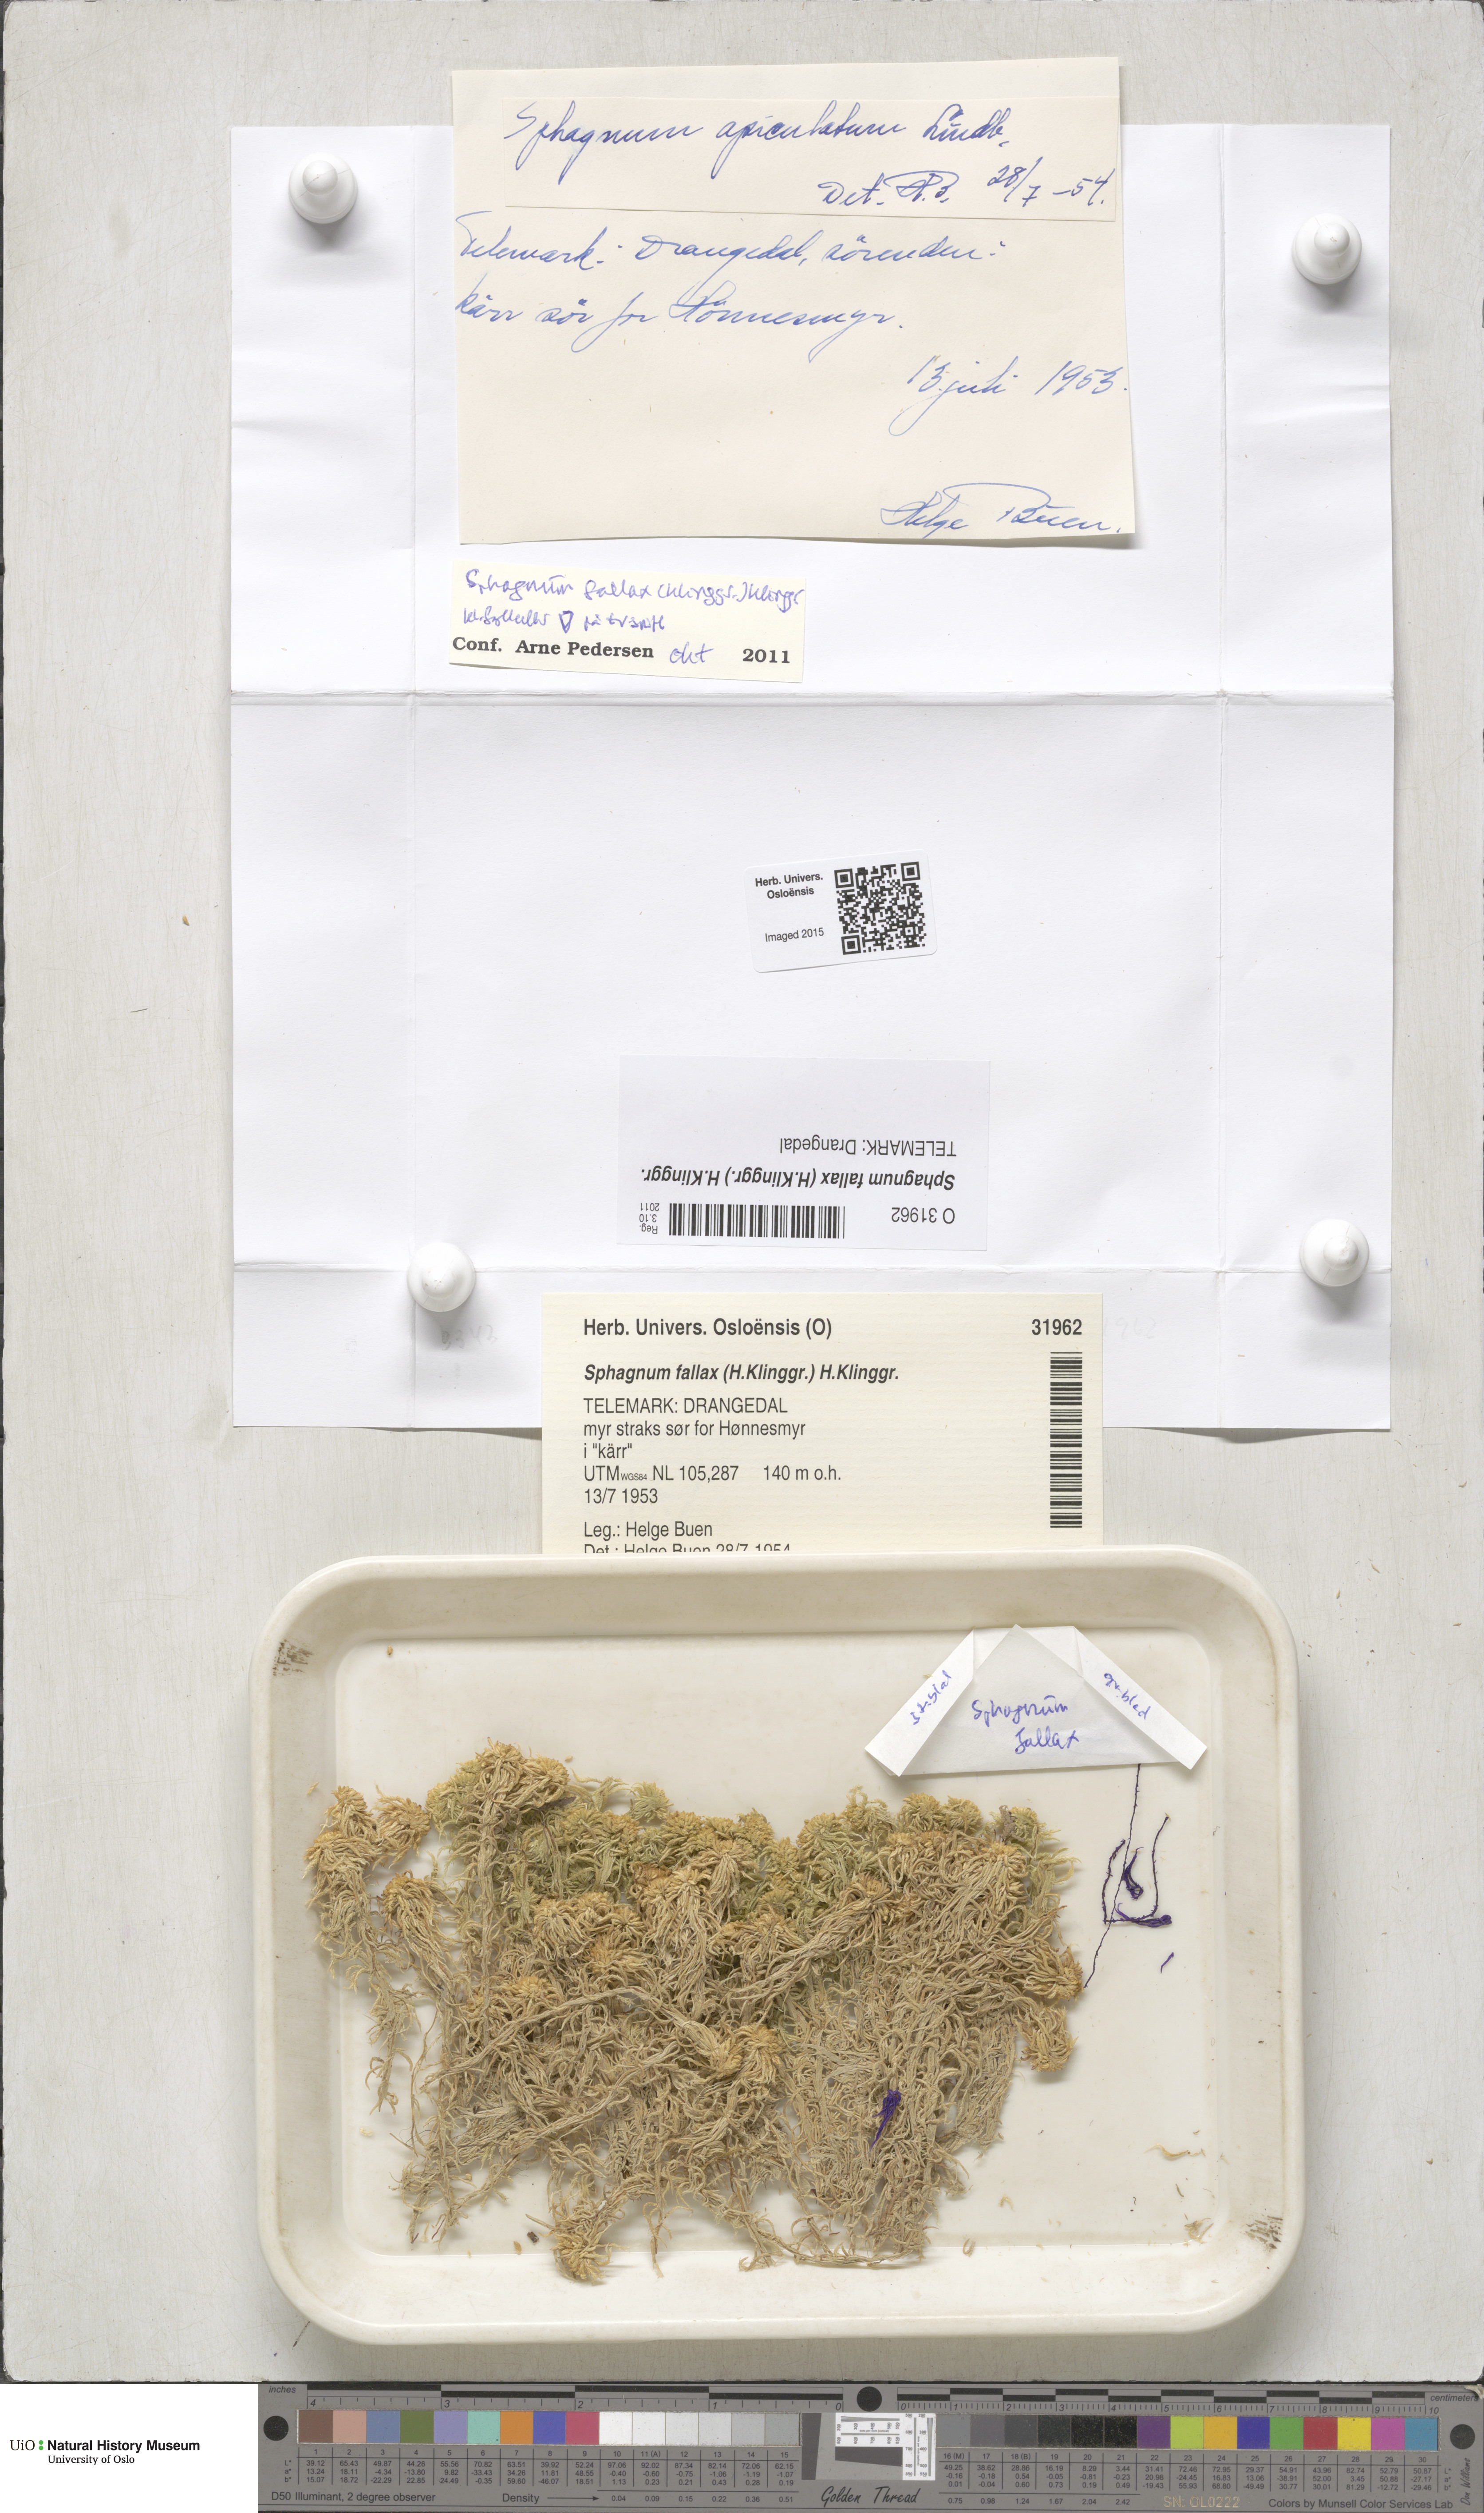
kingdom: Plantae
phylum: Bryophyta
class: Sphagnopsida
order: Sphagnales
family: Sphagnaceae
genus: Sphagnum
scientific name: Sphagnum fallax
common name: Flat-top peat moss
